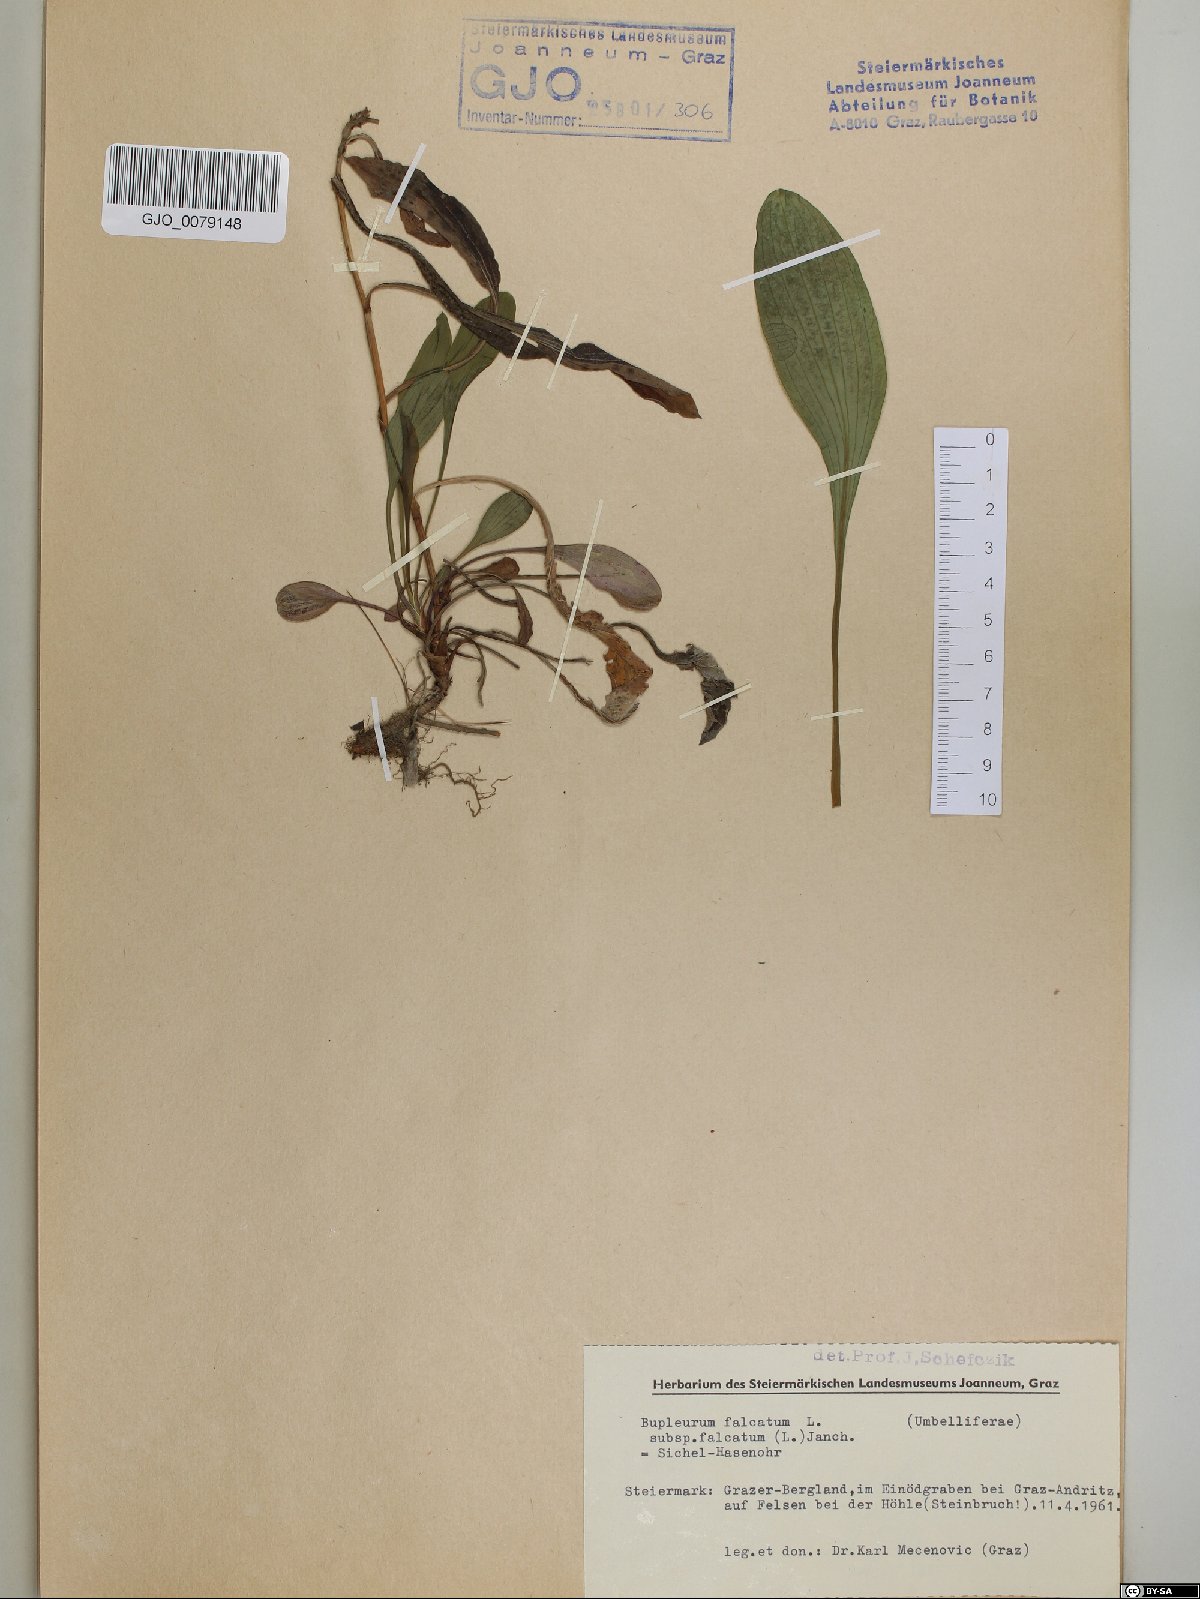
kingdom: Plantae
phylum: Tracheophyta
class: Magnoliopsida
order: Apiales
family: Apiaceae
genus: Bupleurum
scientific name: Bupleurum falcatum
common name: Sickle-leaved hare's-ear
